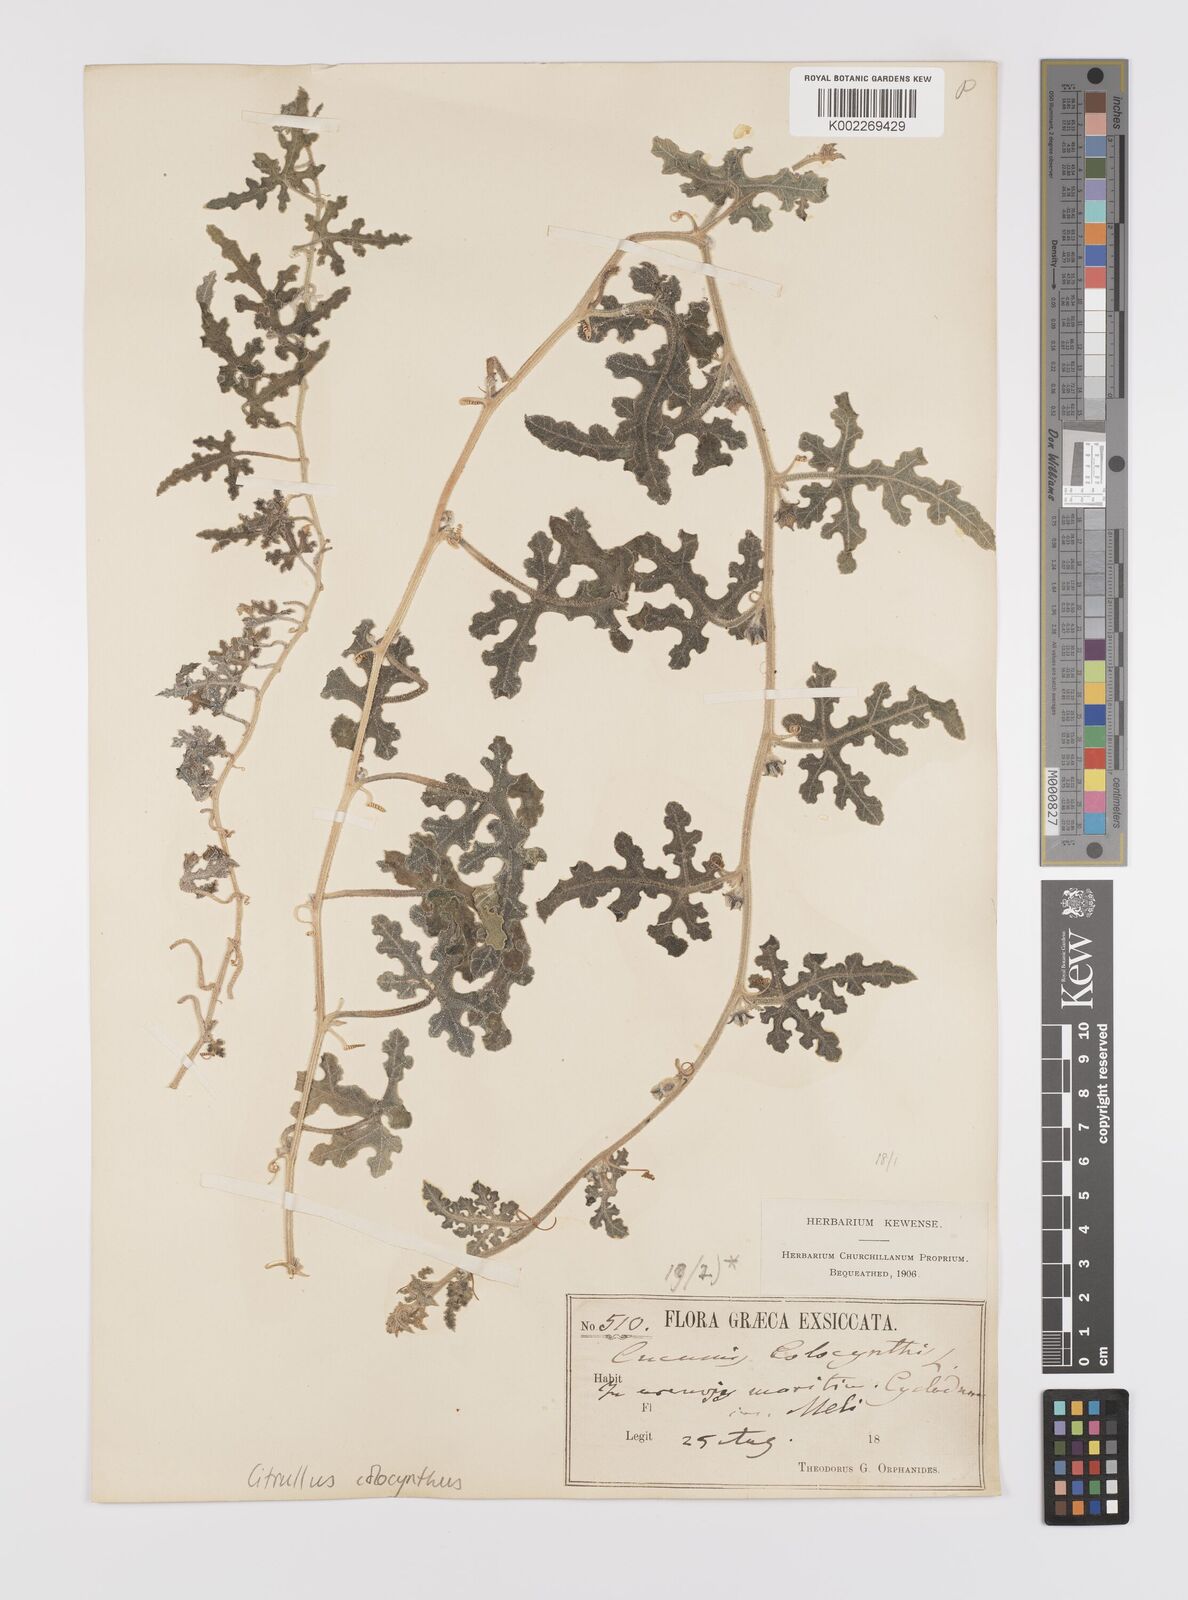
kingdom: Plantae
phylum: Tracheophyta
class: Magnoliopsida
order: Cucurbitales
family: Cucurbitaceae
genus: Citrullus
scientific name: Citrullus colocynthis
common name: Colocynth
